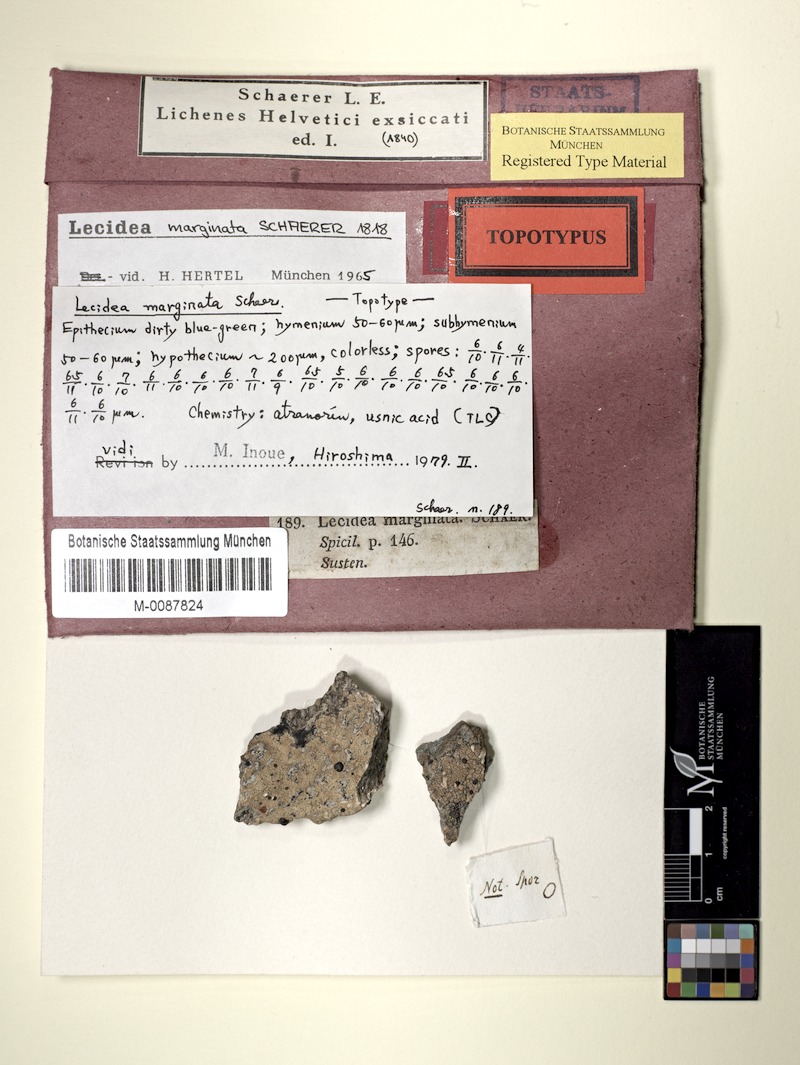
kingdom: Fungi
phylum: Ascomycota
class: Lecanoromycetes
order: Lecanorales
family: Lecanoraceae
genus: Lecanora
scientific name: Lecanora marginata
